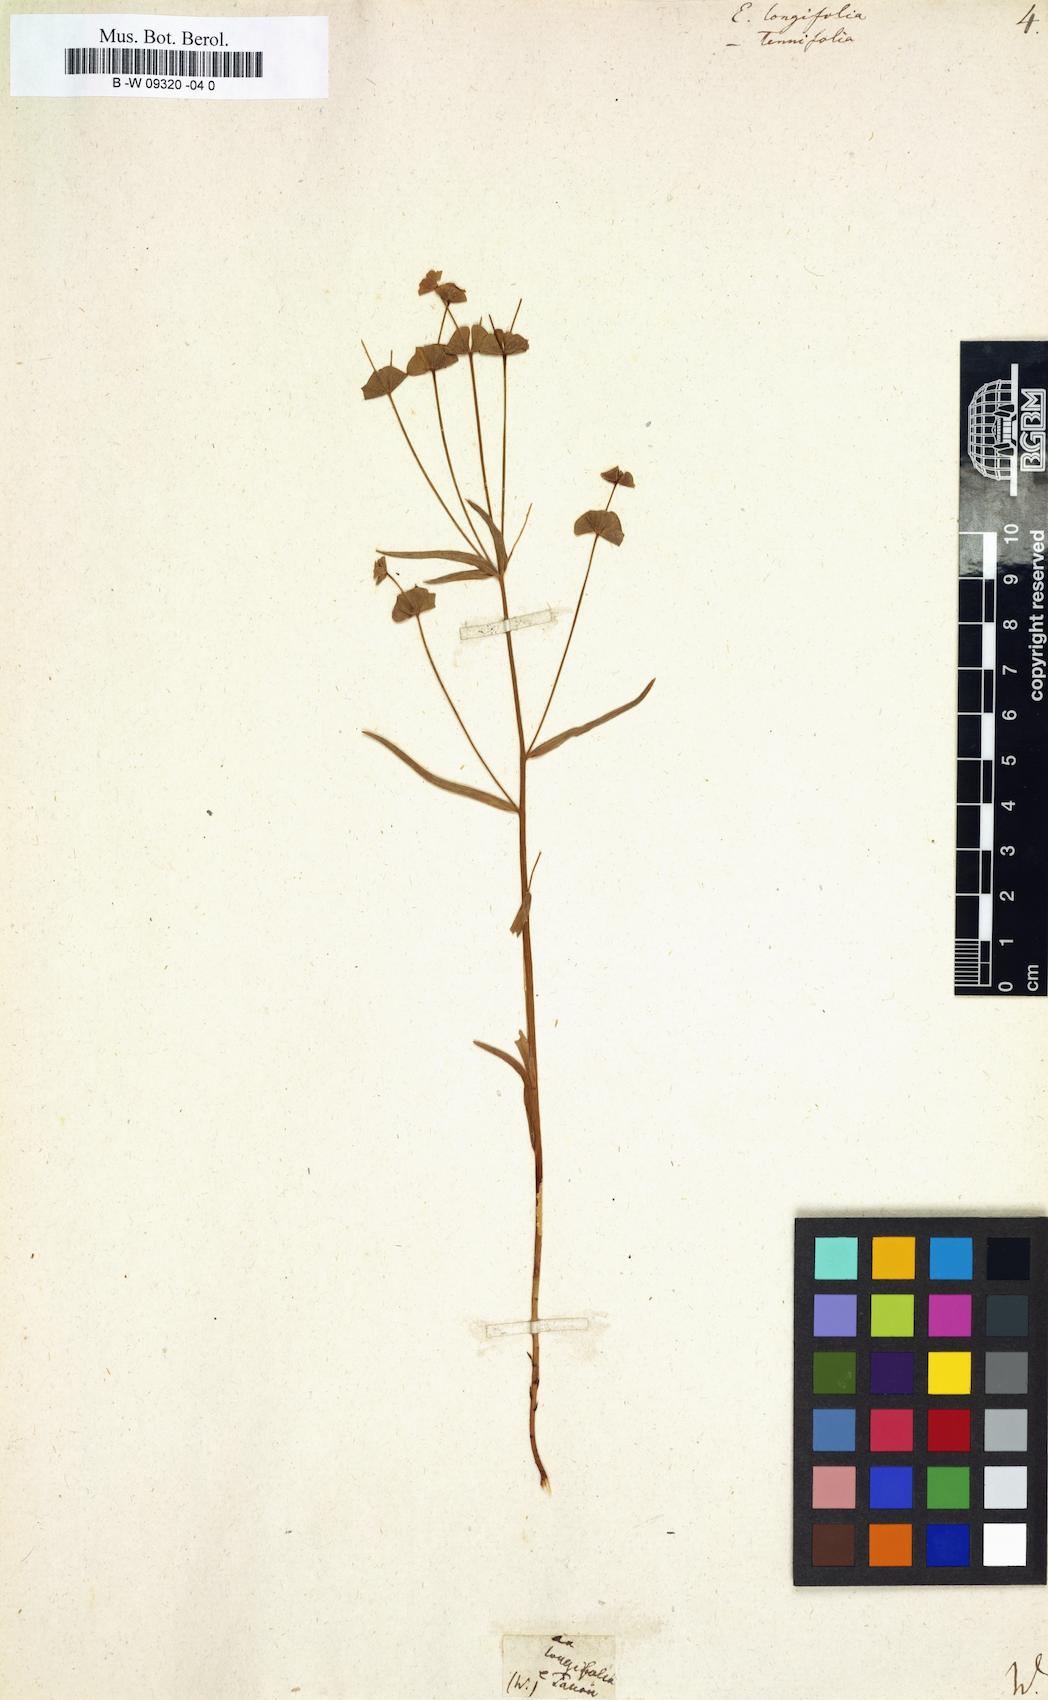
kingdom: Plantae
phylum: Tracheophyta
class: Magnoliopsida
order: Malpighiales
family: Euphorbiaceae
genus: Euphorbia
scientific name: Euphorbia mellifera
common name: Canary spurge
